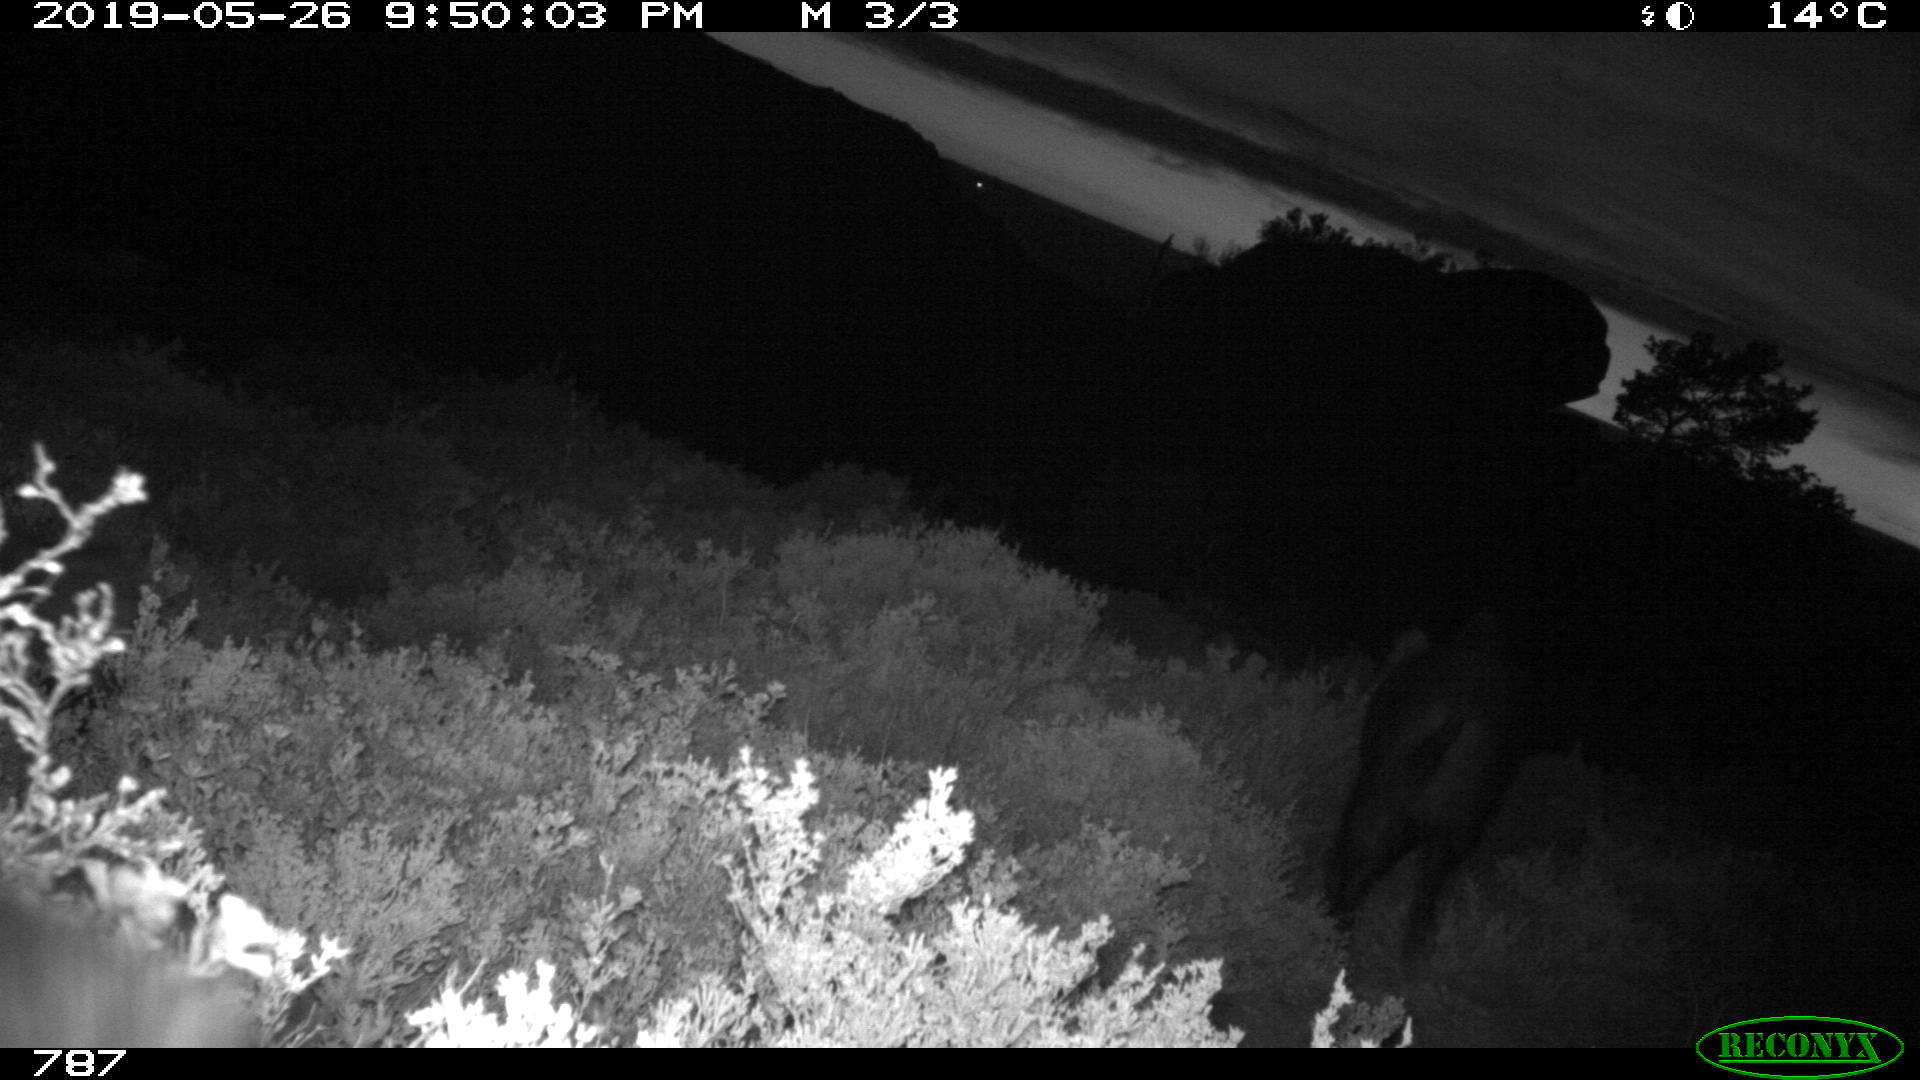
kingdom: Animalia
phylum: Chordata
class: Mammalia
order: Artiodactyla
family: Suidae
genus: Sus
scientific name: Sus scrofa
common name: Wild boar
